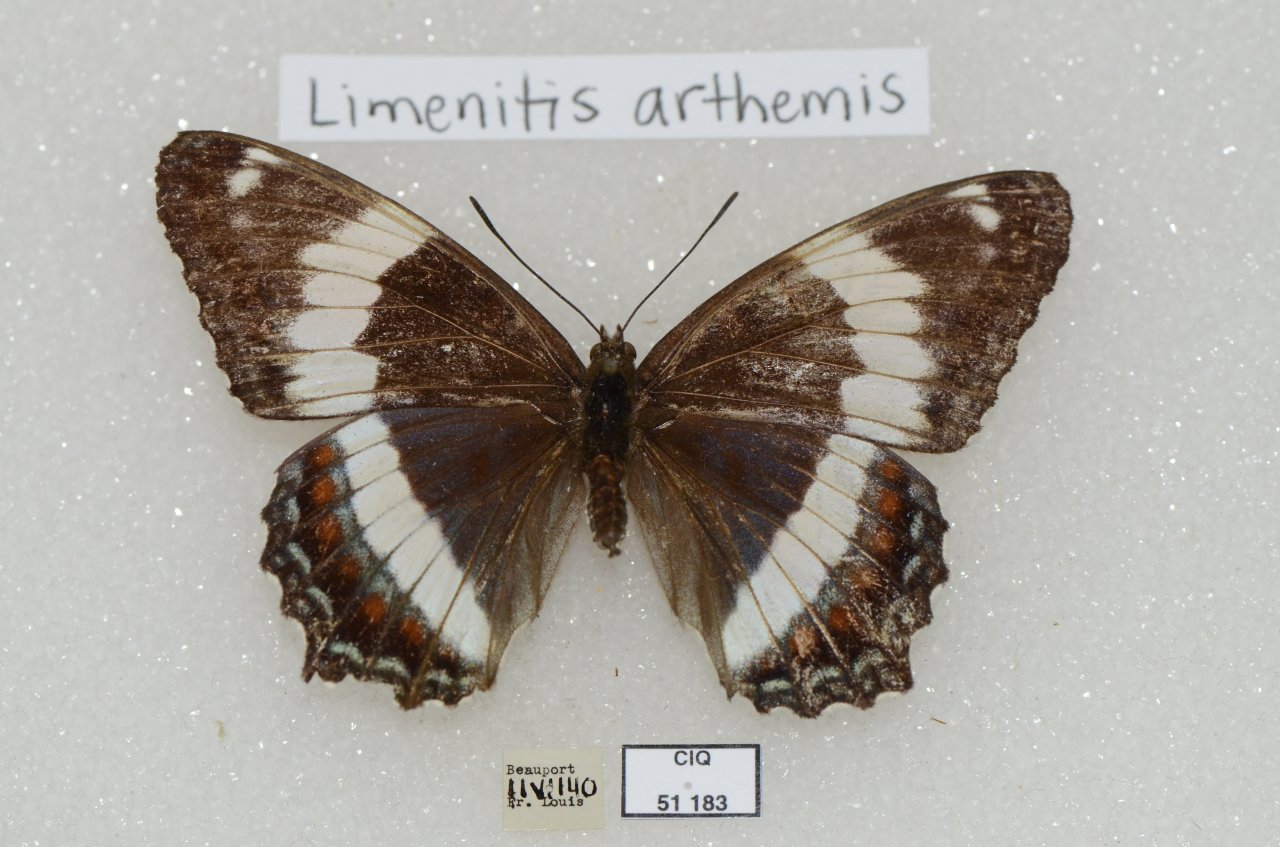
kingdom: Animalia
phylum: Arthropoda
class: Insecta
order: Lepidoptera
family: Nymphalidae
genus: Limenitis
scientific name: Limenitis arthemis
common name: Red-spotted Admiral
